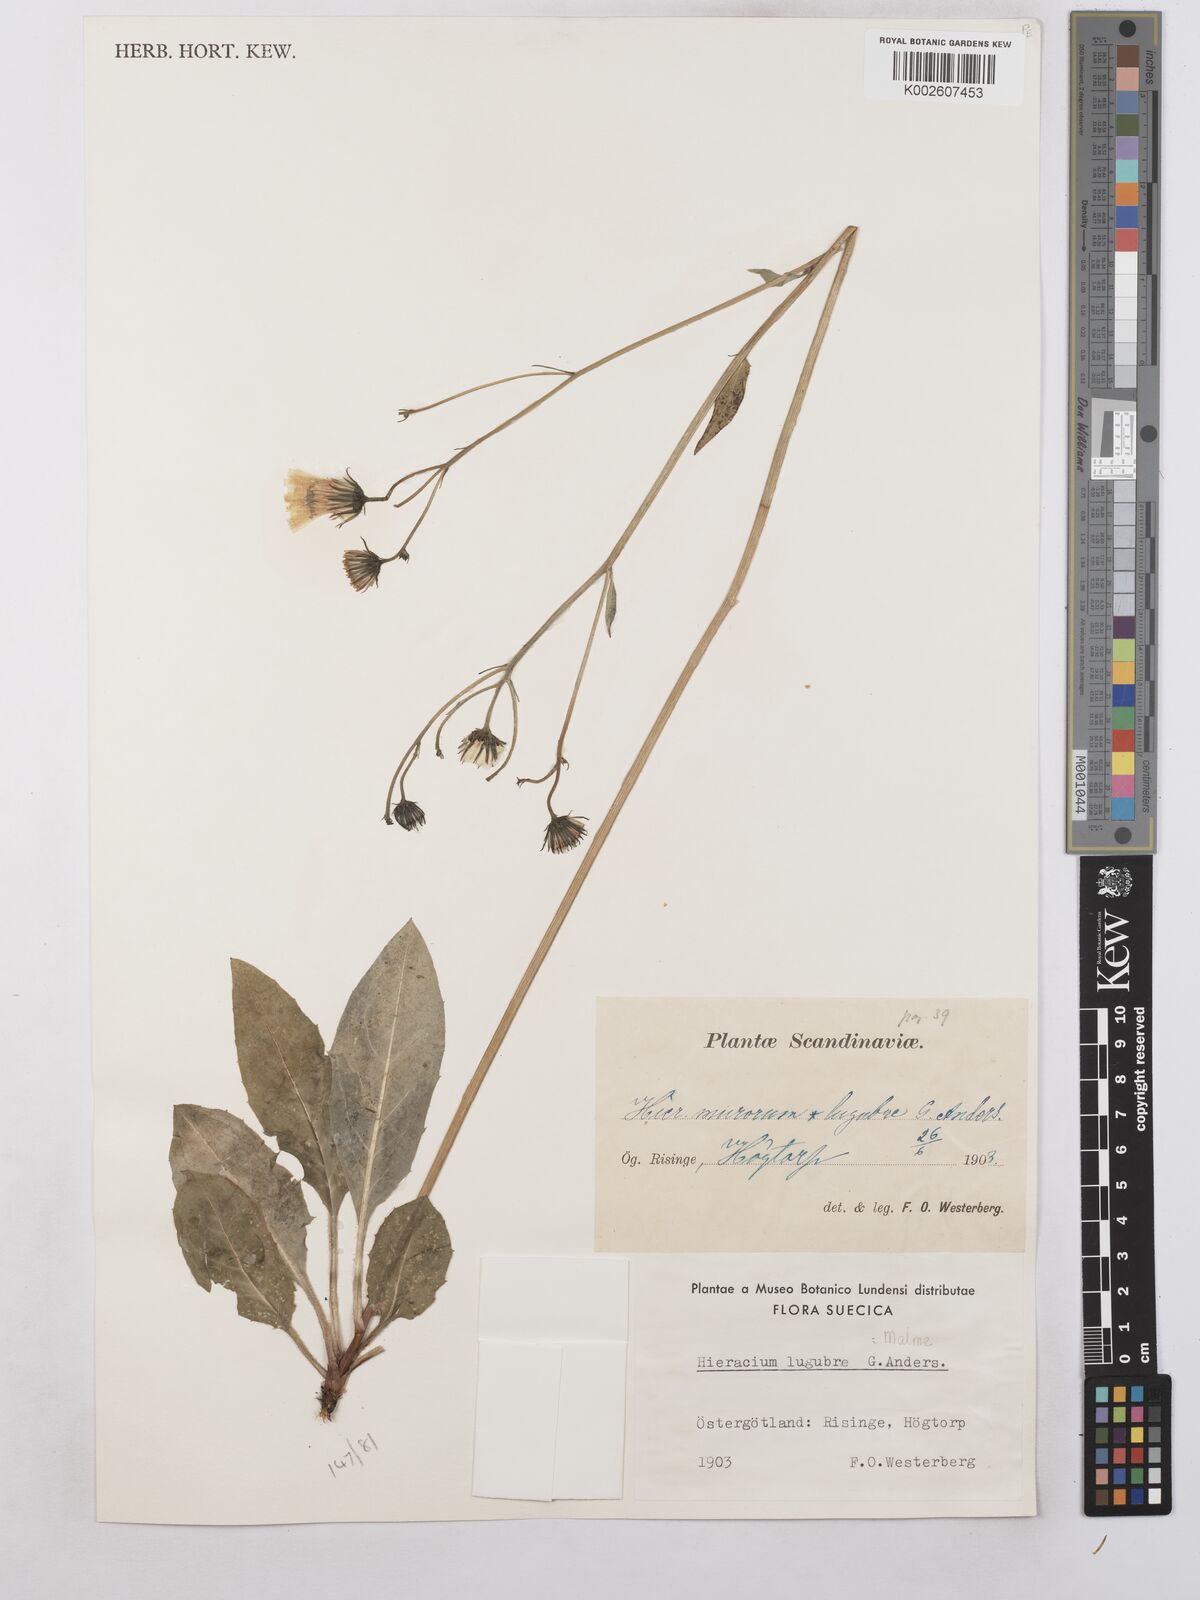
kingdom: Plantae
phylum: Tracheophyta
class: Magnoliopsida
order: Asterales
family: Asteraceae
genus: Hieracium
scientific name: Hieracium caesium
